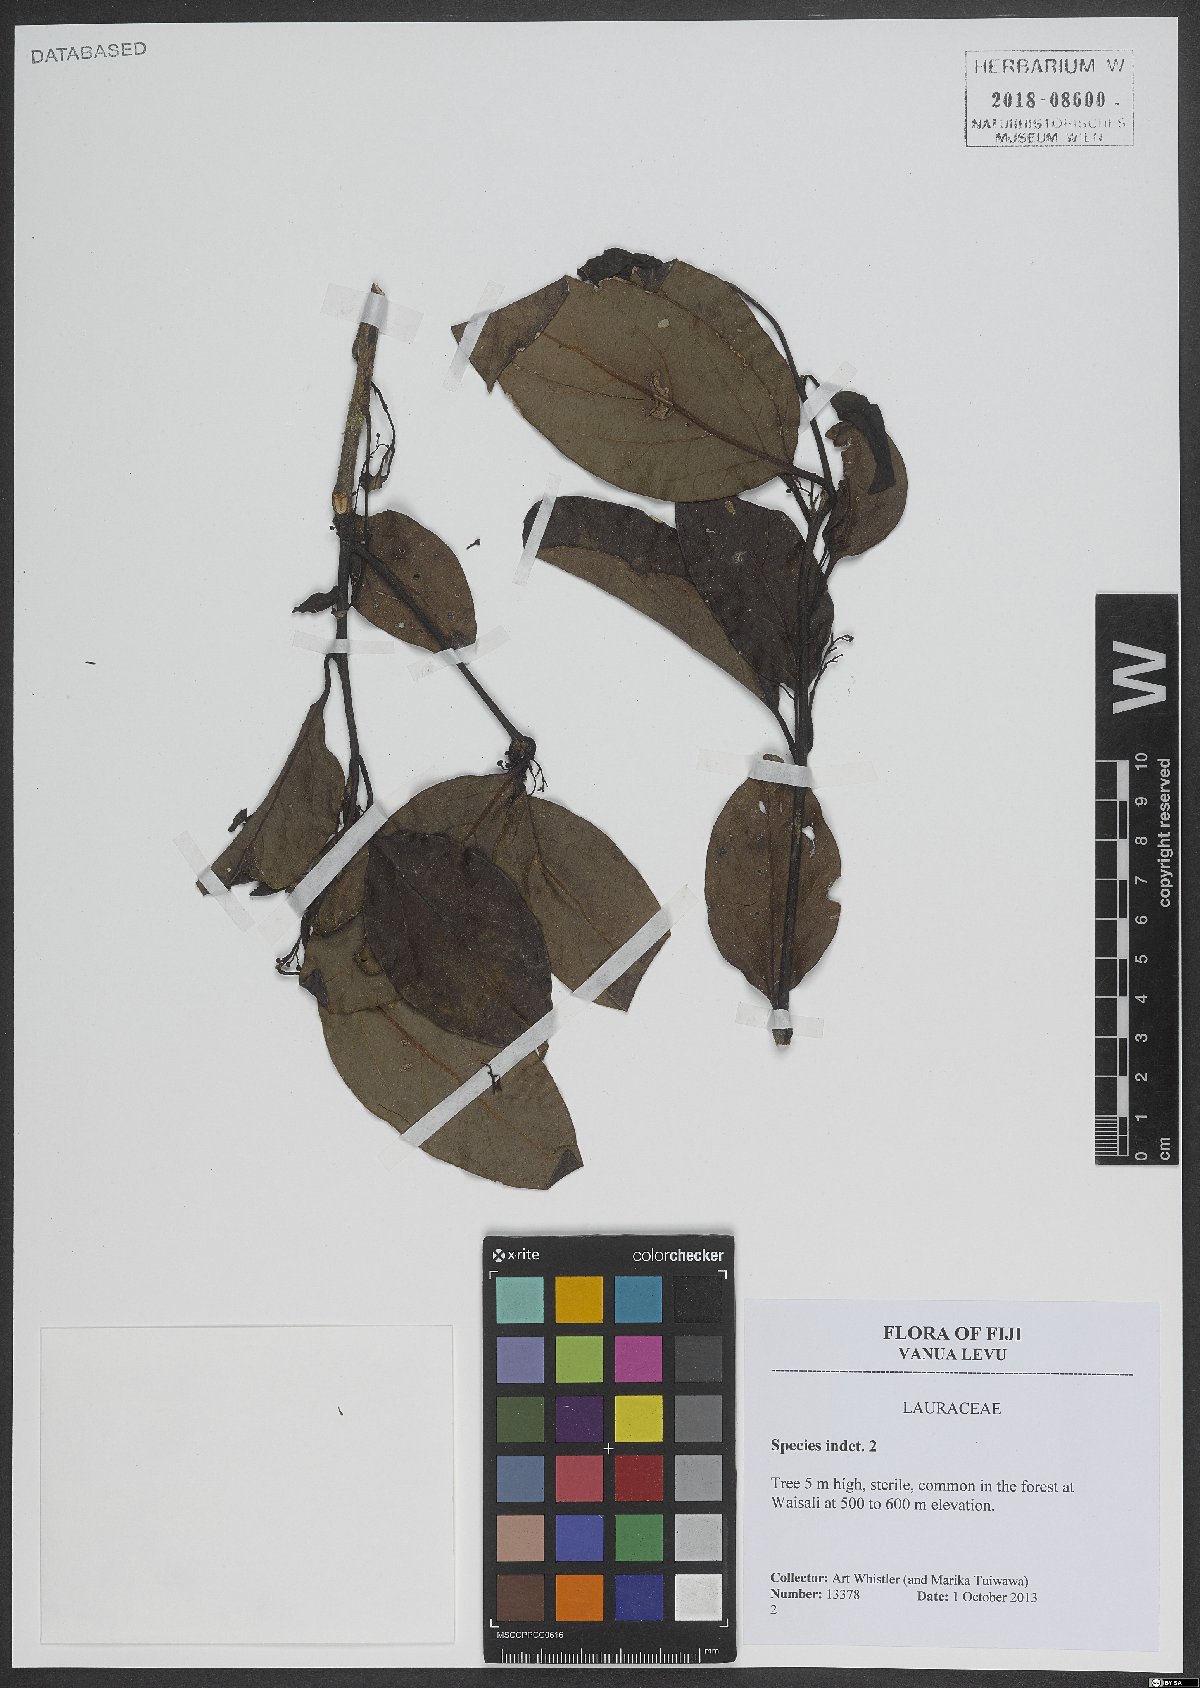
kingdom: Plantae
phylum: Tracheophyta
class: Magnoliopsida
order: Laurales
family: Lauraceae
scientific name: Lauraceae
